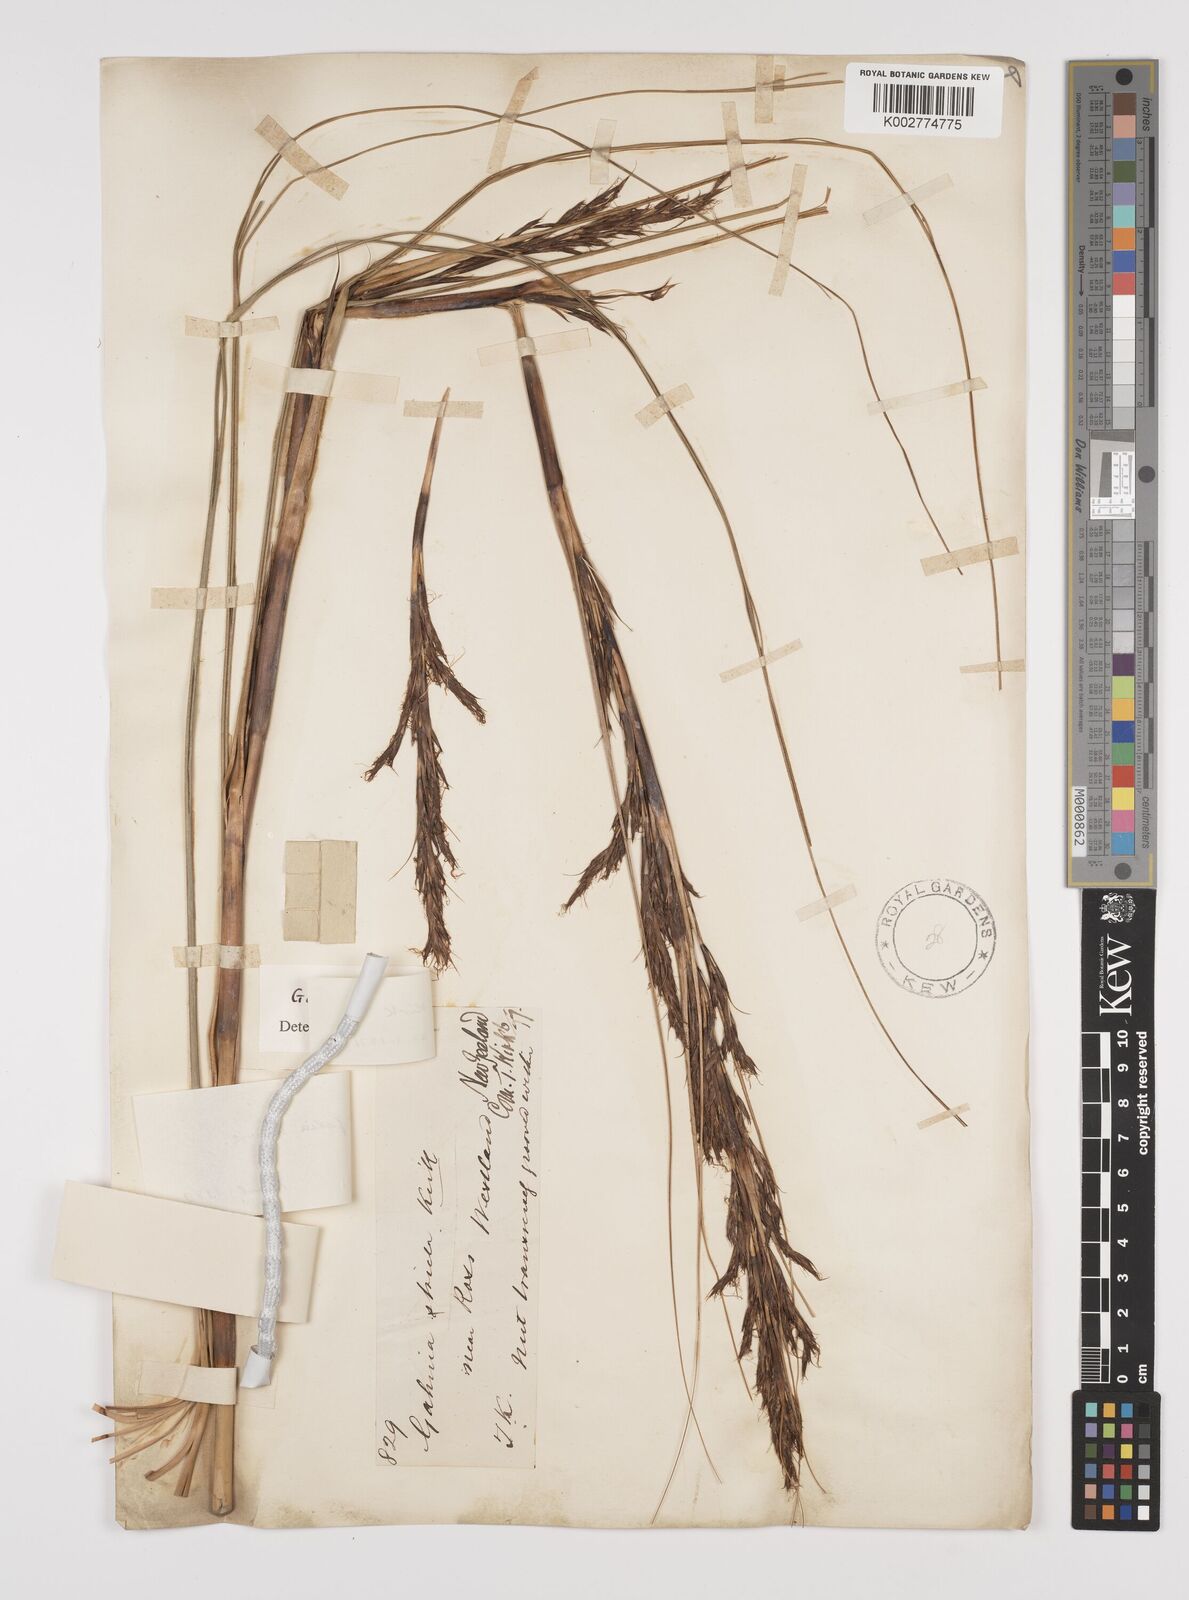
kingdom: Plantae
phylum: Tracheophyta
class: Liliopsida
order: Poales
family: Cyperaceae
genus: Gahnia
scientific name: Gahnia rigida
